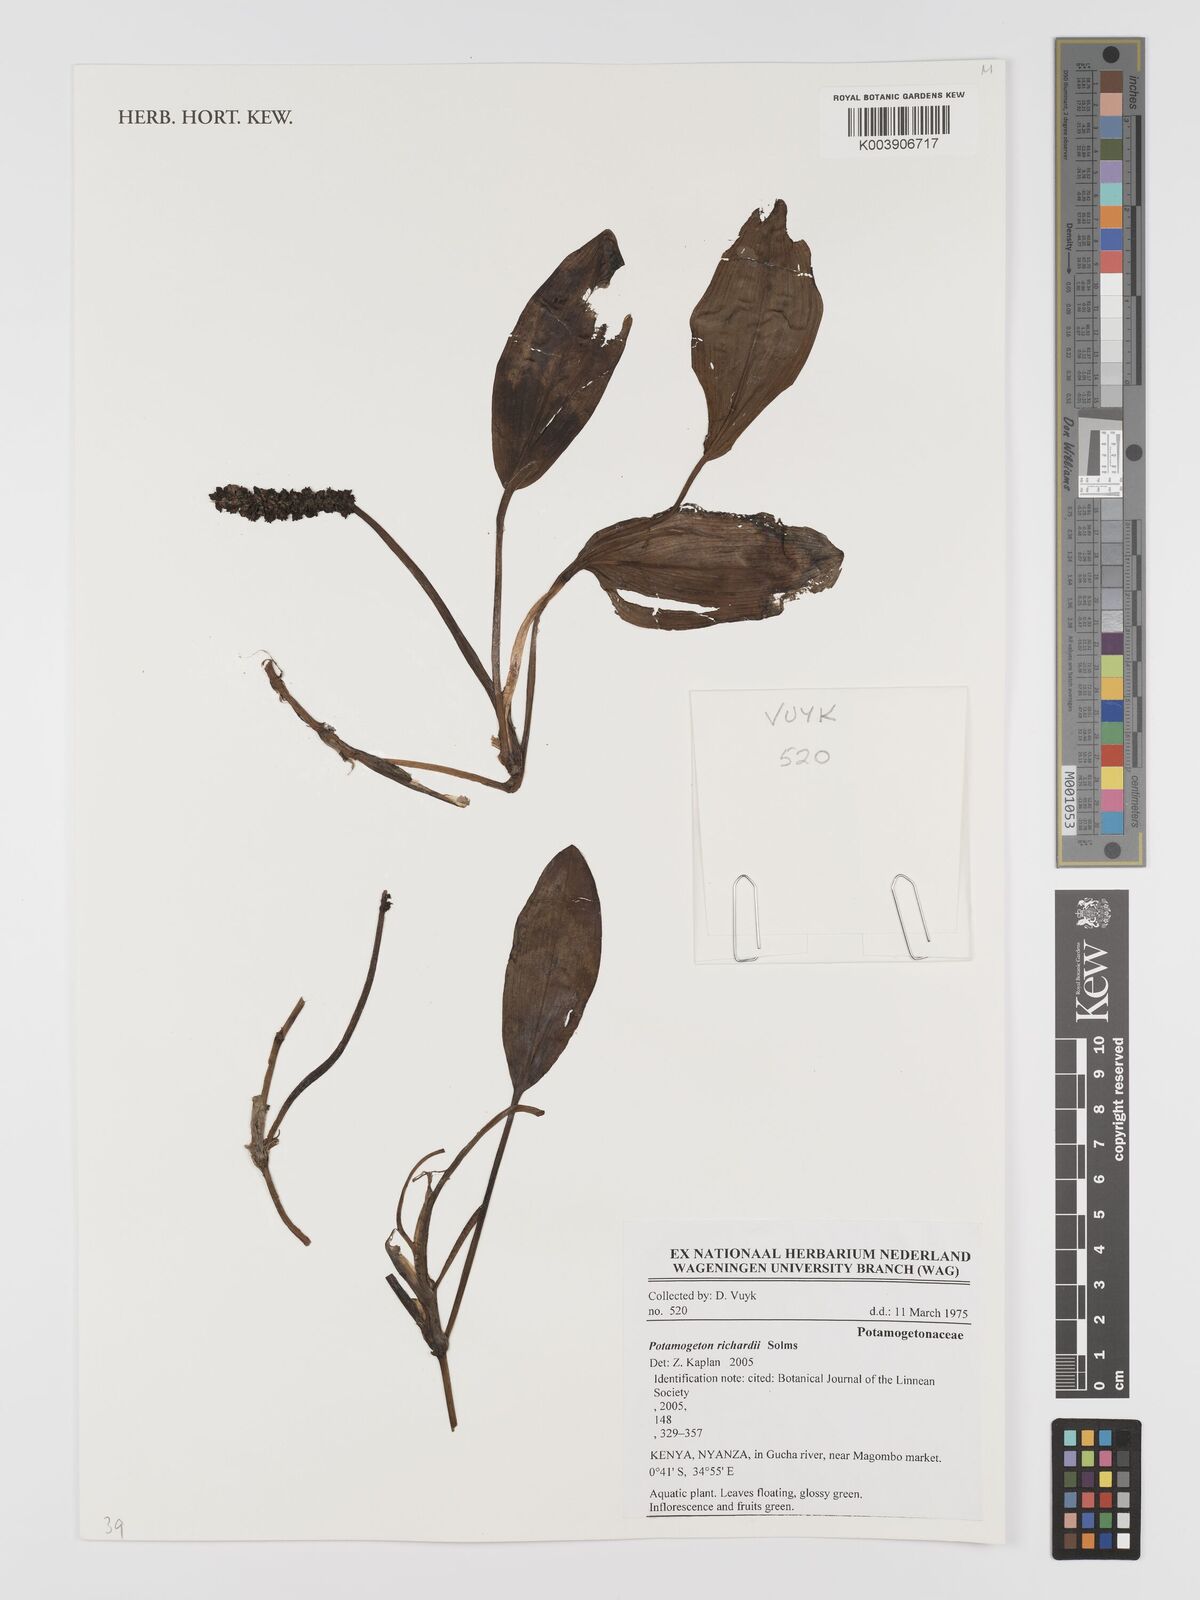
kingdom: Plantae
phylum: Tracheophyta
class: Liliopsida
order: Alismatales
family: Potamogetonaceae
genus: Potamogeton
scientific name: Potamogeton nodosus
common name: Loddon pondweed
